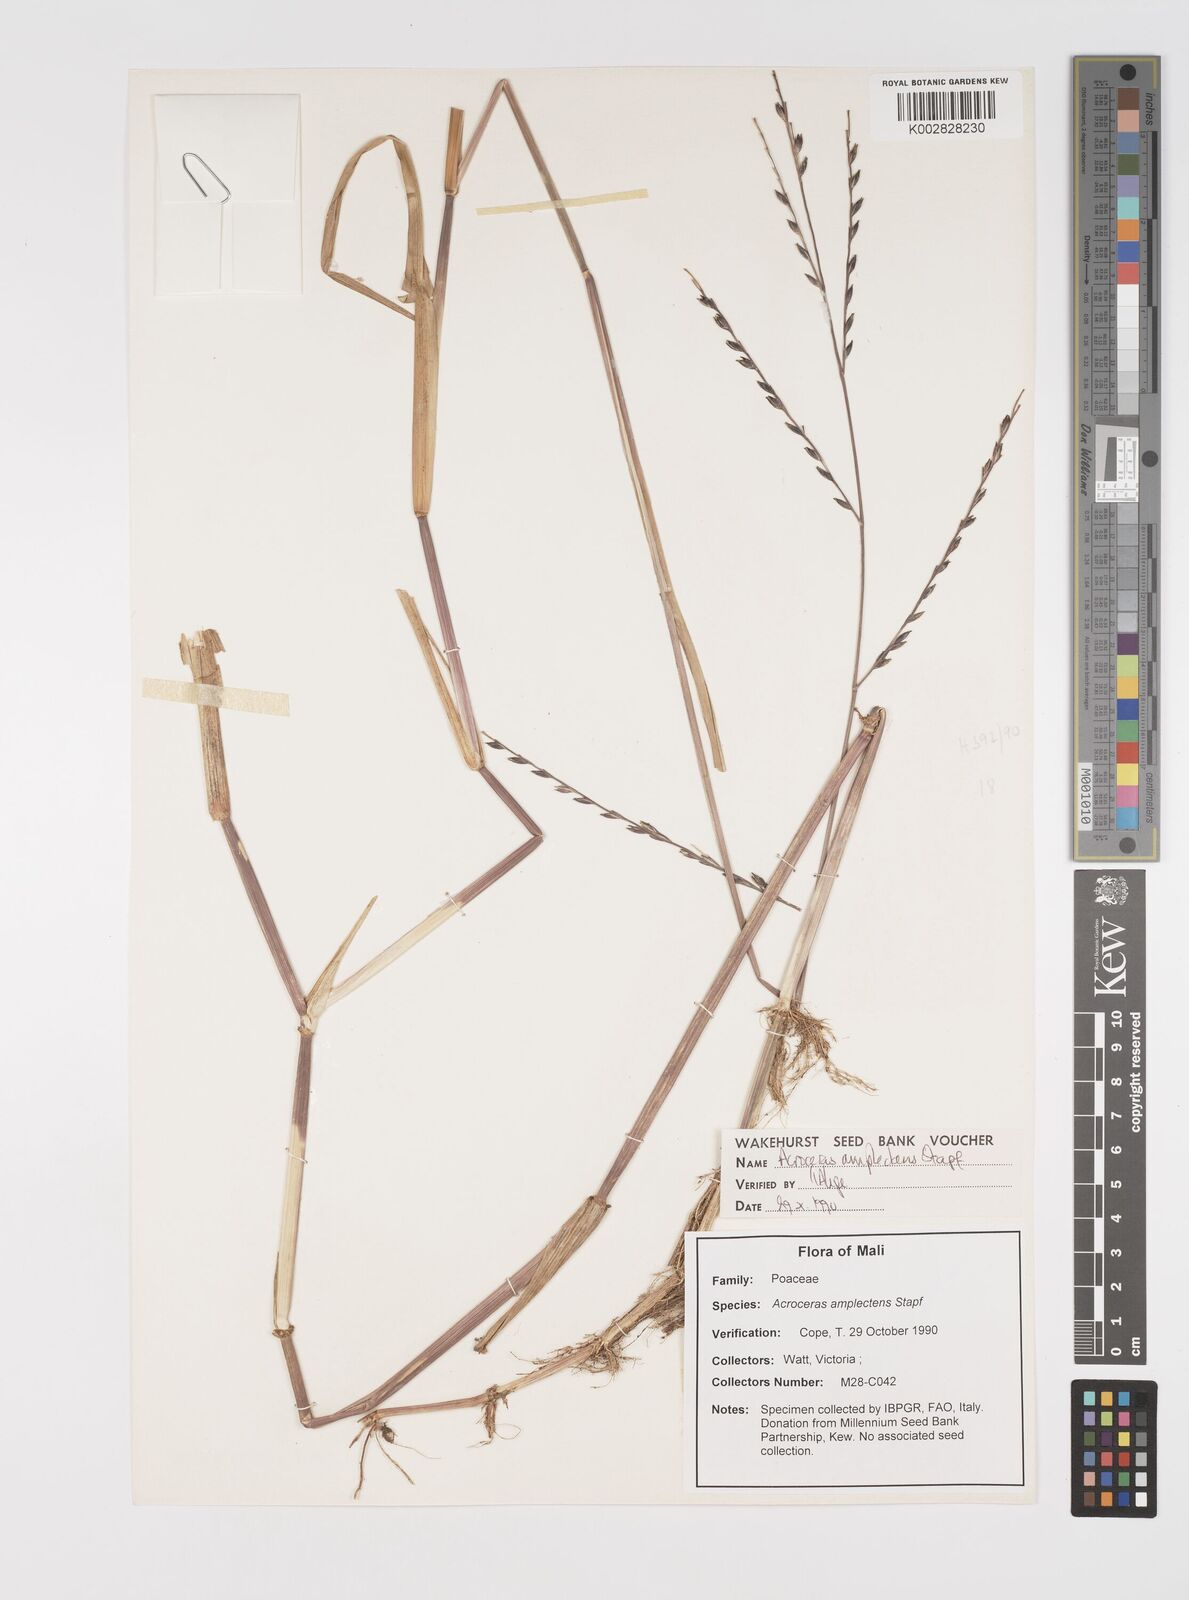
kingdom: Plantae
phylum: Tracheophyta
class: Liliopsida
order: Poales
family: Poaceae
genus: Acroceras
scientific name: Acroceras amplectens
